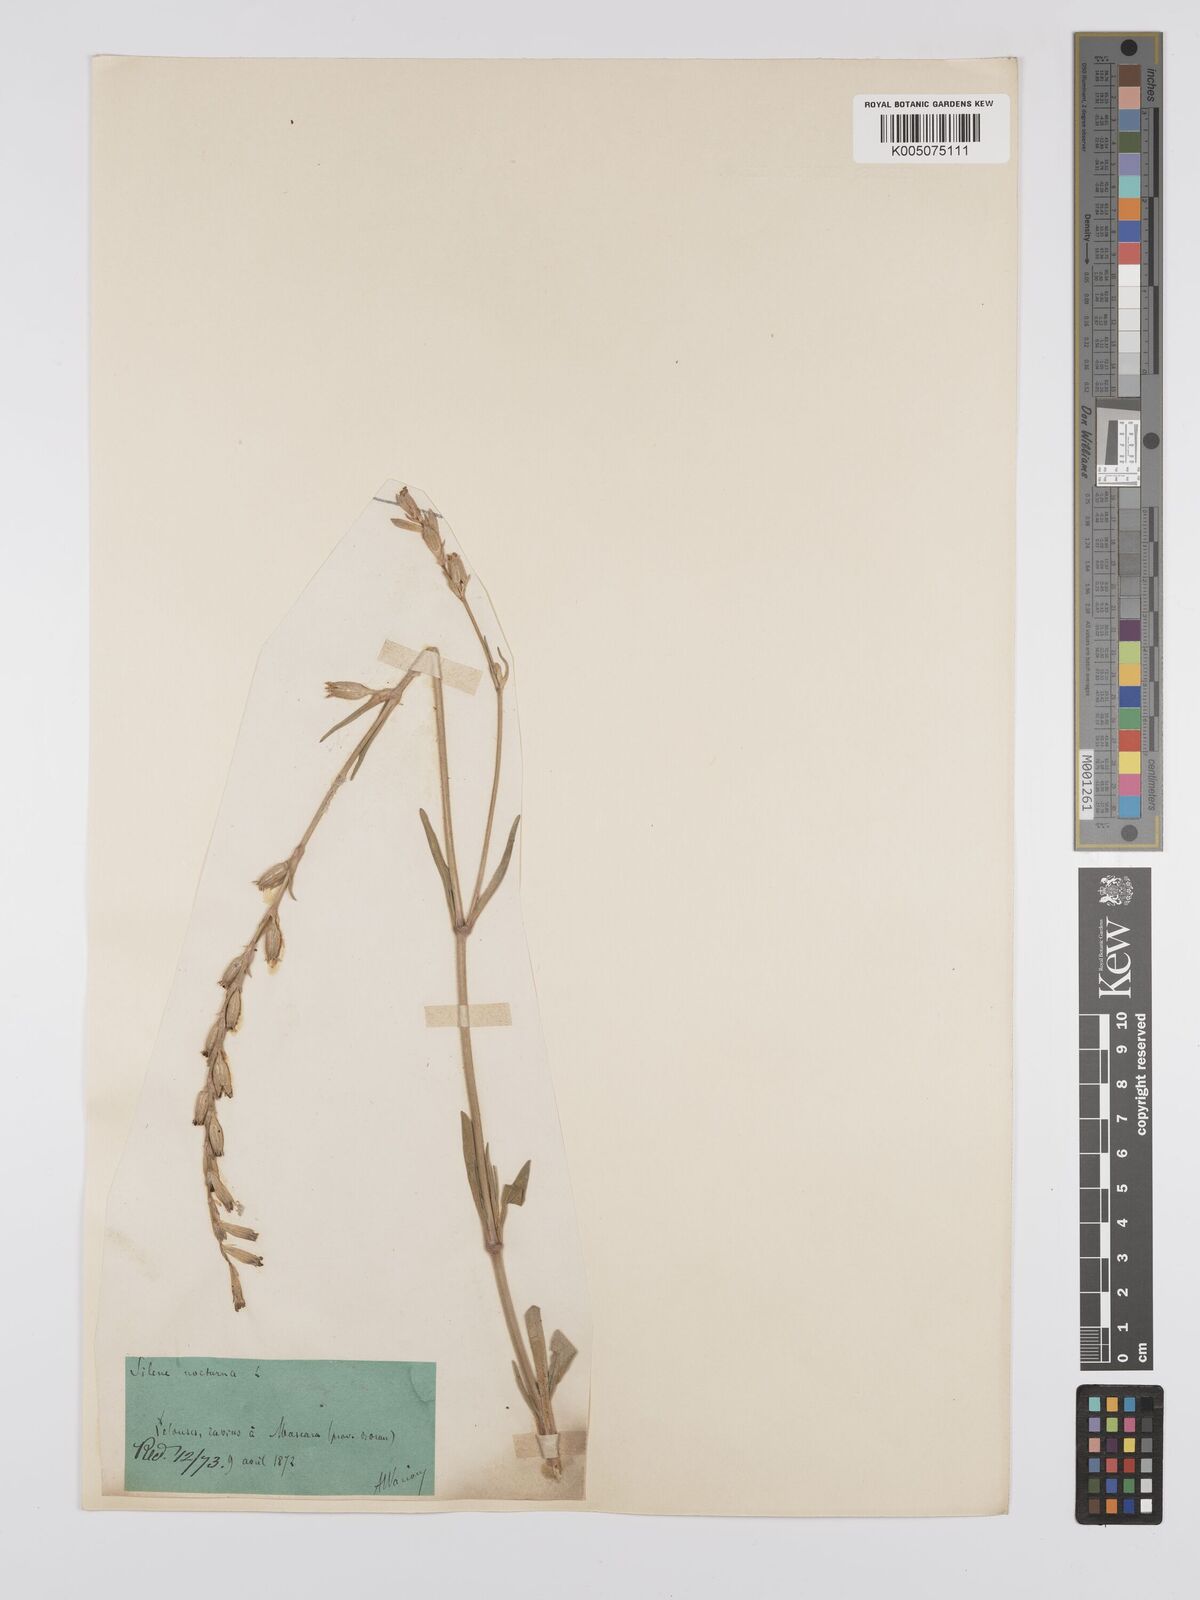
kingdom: Plantae
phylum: Tracheophyta
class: Magnoliopsida
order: Caryophyllales
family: Caryophyllaceae
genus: Silene
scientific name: Silene nocturna
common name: Mediterranean catchfly
